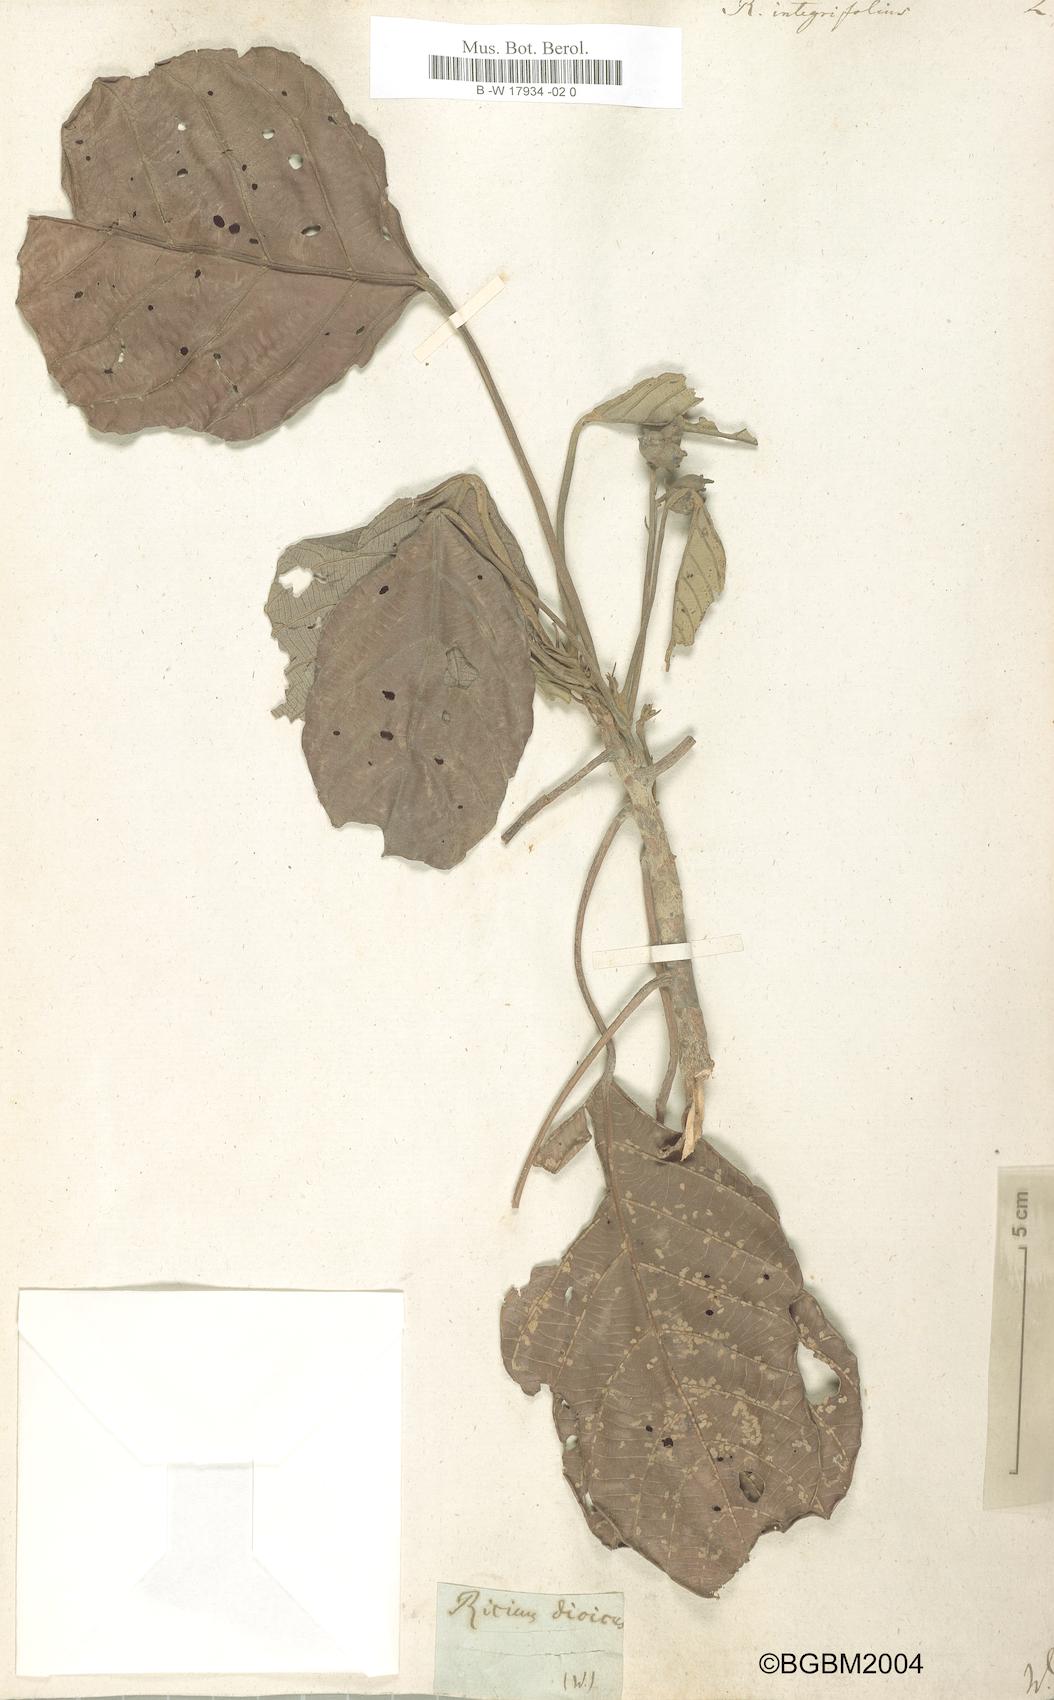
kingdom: Plantae
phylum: Tracheophyta
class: Magnoliopsida
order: Malpighiales
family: Euphorbiaceae
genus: Hancea
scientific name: Hancea integrifolia
